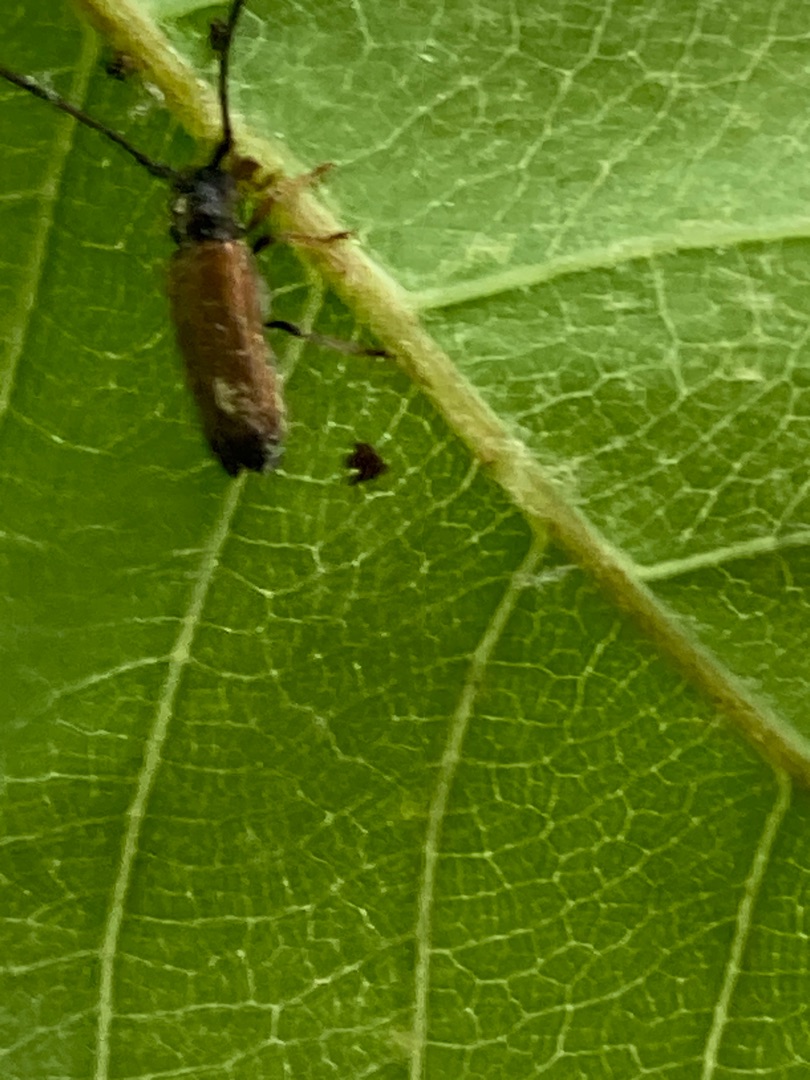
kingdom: Animalia
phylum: Arthropoda
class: Insecta
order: Coleoptera
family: Cerambycidae
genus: Tetrops
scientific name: Tetrops praeustus
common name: Dværgbuk
